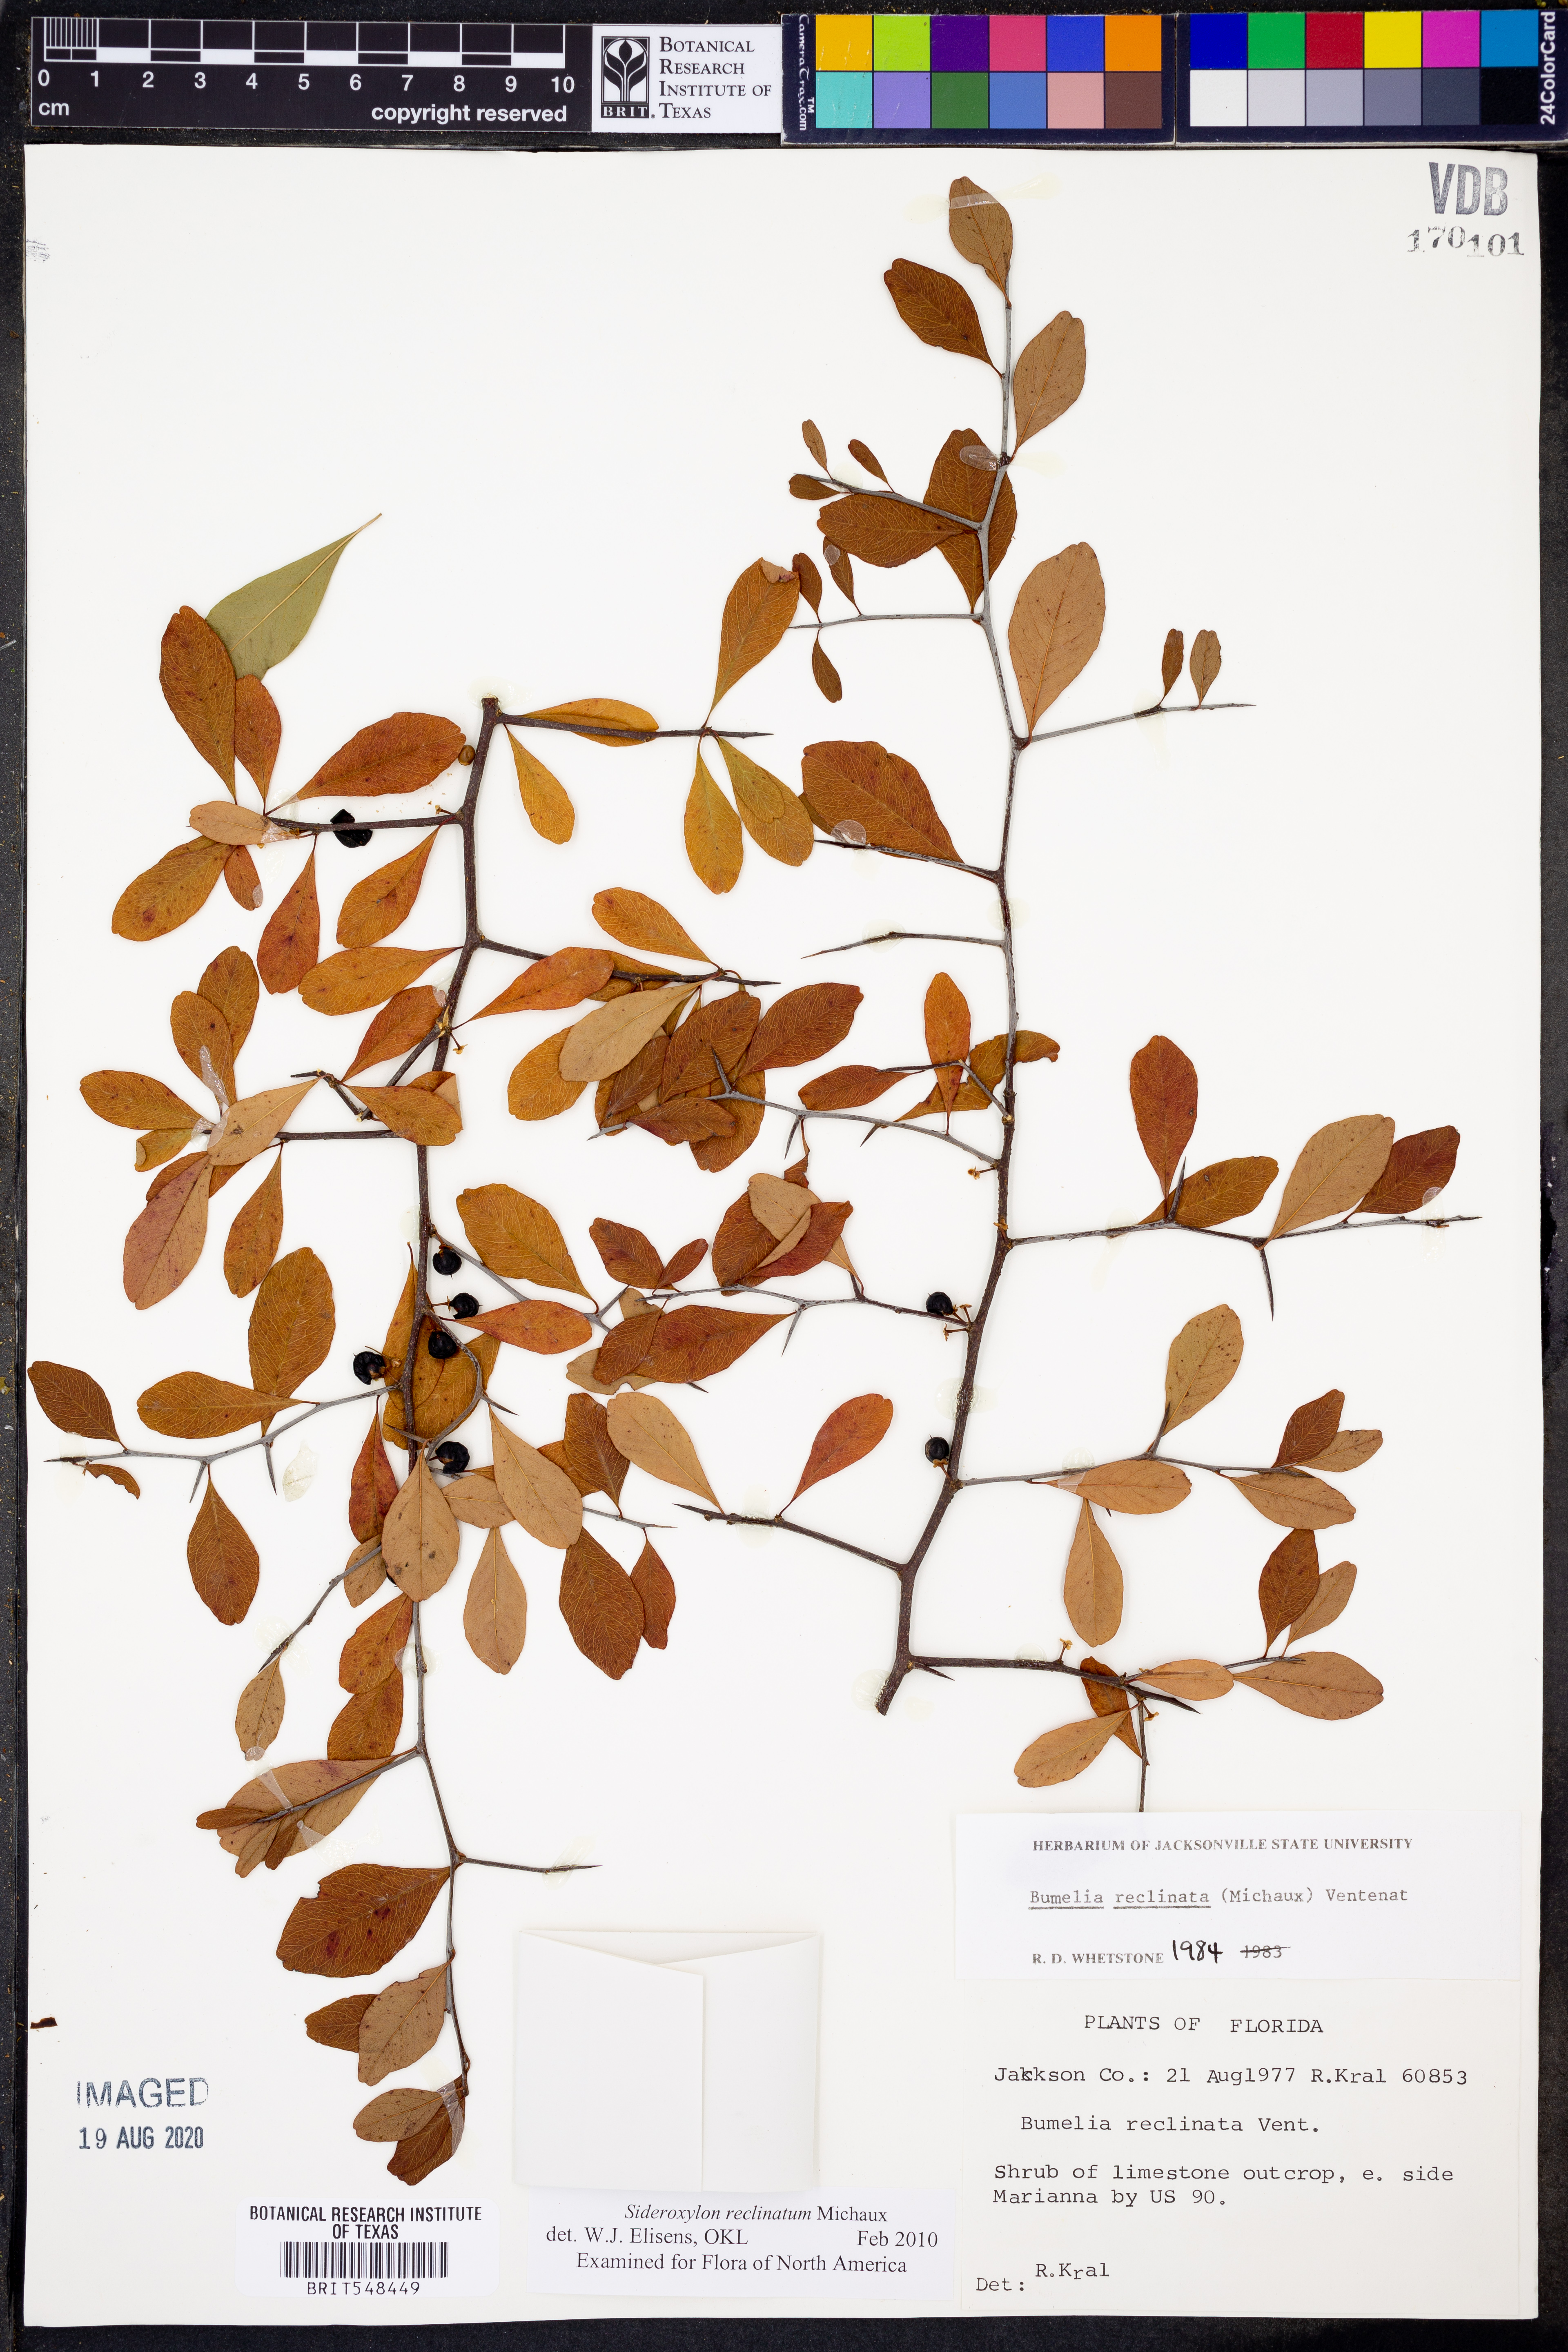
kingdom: Plantae
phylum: Tracheophyta
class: Magnoliopsida
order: Ericales
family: Sapotaceae
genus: Sideroxylon
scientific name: Sideroxylon reclinatum
